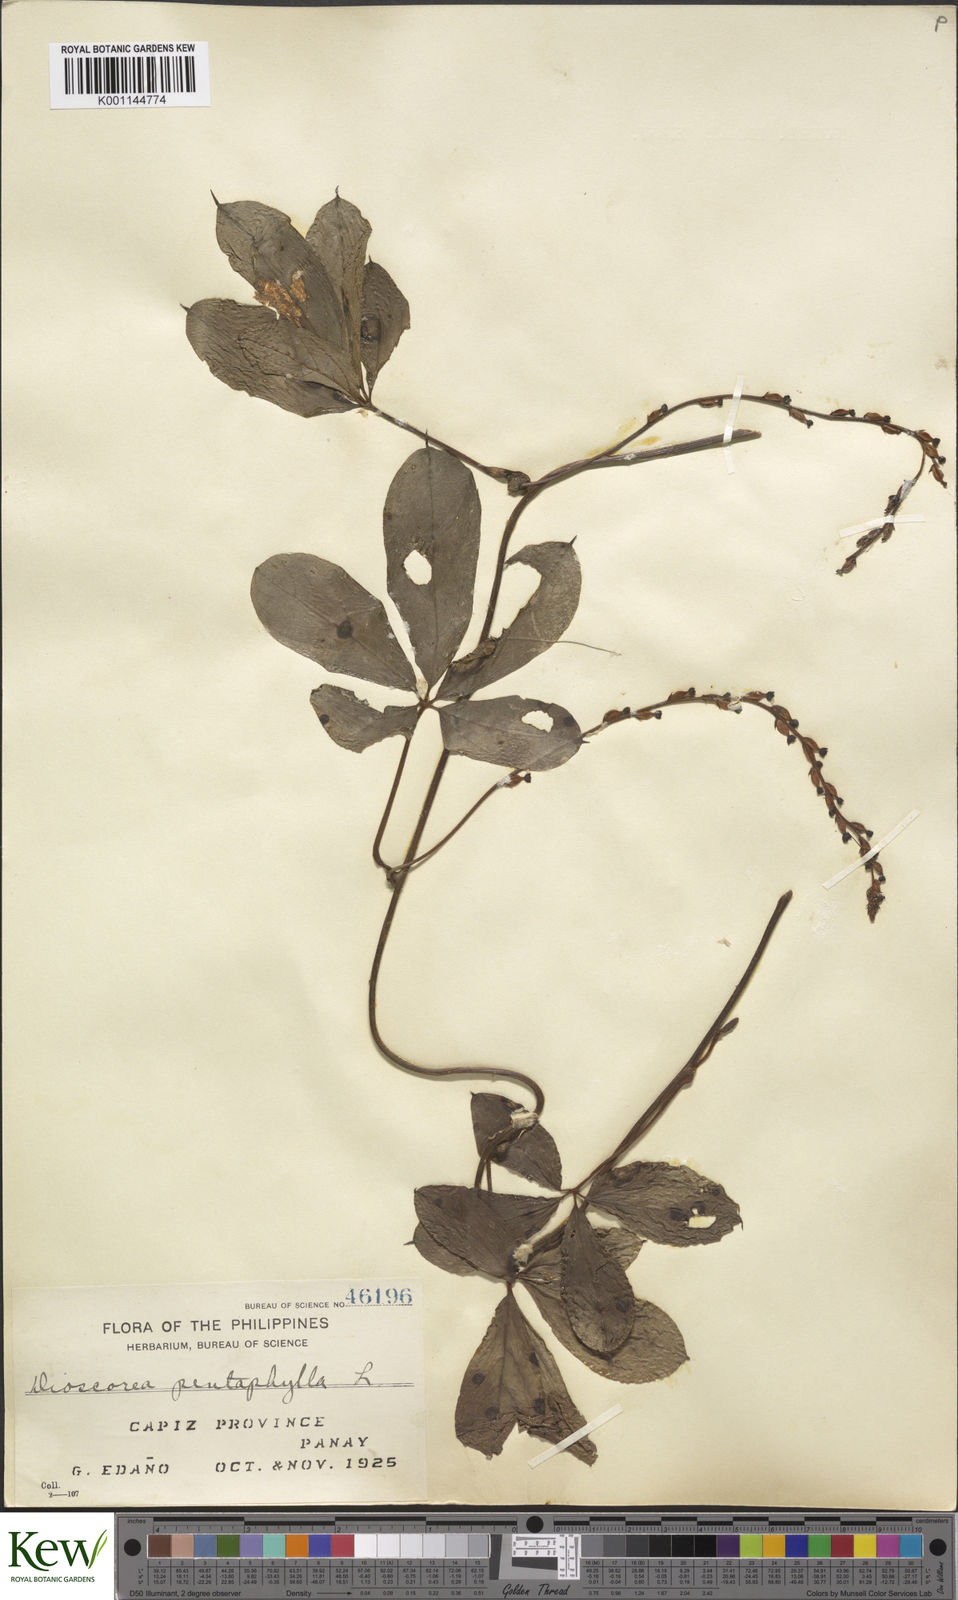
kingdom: Plantae
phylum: Tracheophyta
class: Liliopsida
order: Dioscoreales
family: Dioscoreaceae
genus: Dioscorea
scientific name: Dioscorea pentaphylla
